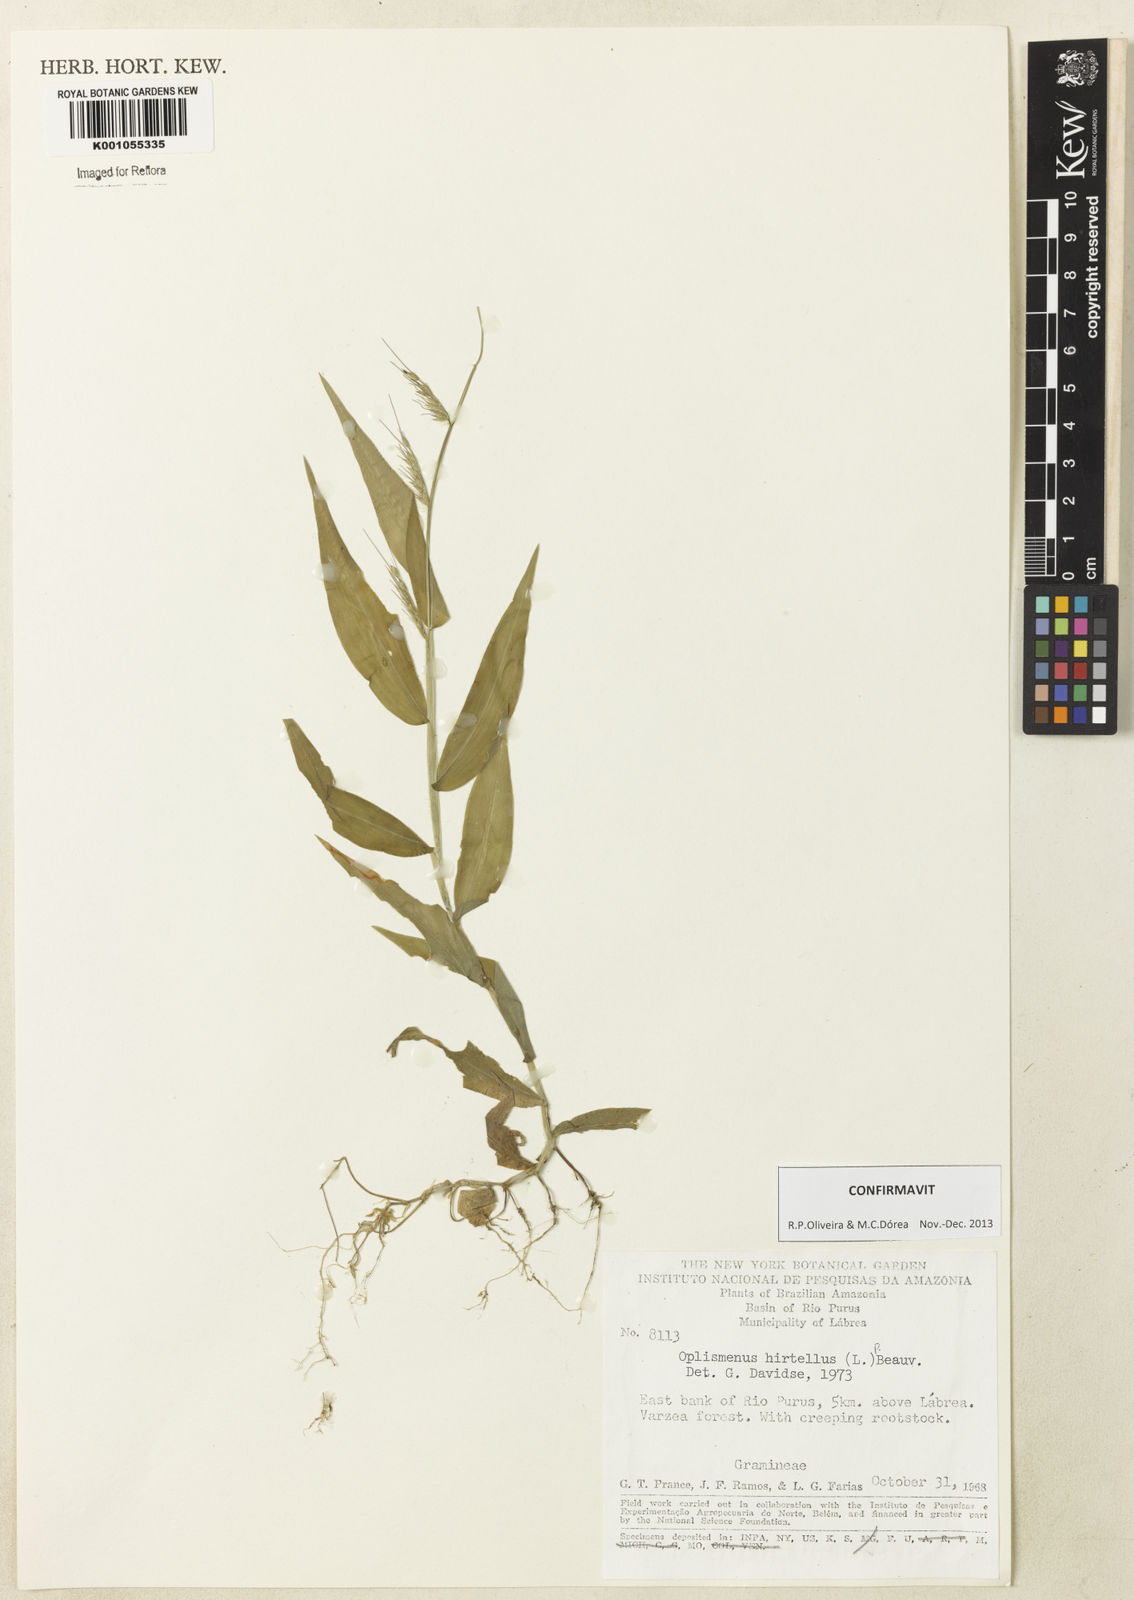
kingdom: Plantae
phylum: Tracheophyta
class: Liliopsida
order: Poales
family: Poaceae
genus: Oplismenus
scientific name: Oplismenus hirtellus
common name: Basketgrass
